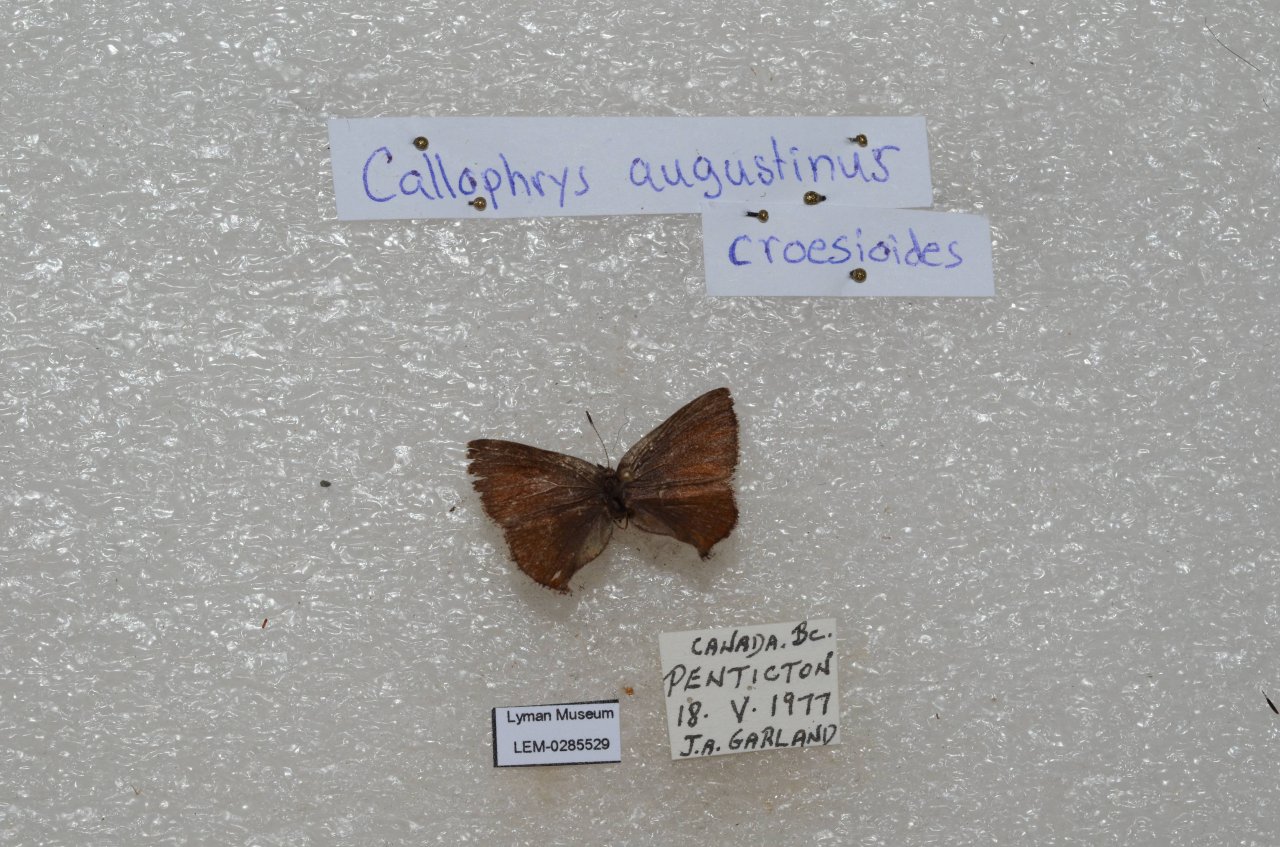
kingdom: Animalia
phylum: Arthropoda
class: Insecta
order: Lepidoptera
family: Lycaenidae
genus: Incisalia
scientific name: Incisalia irioides
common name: Brown Elfin
